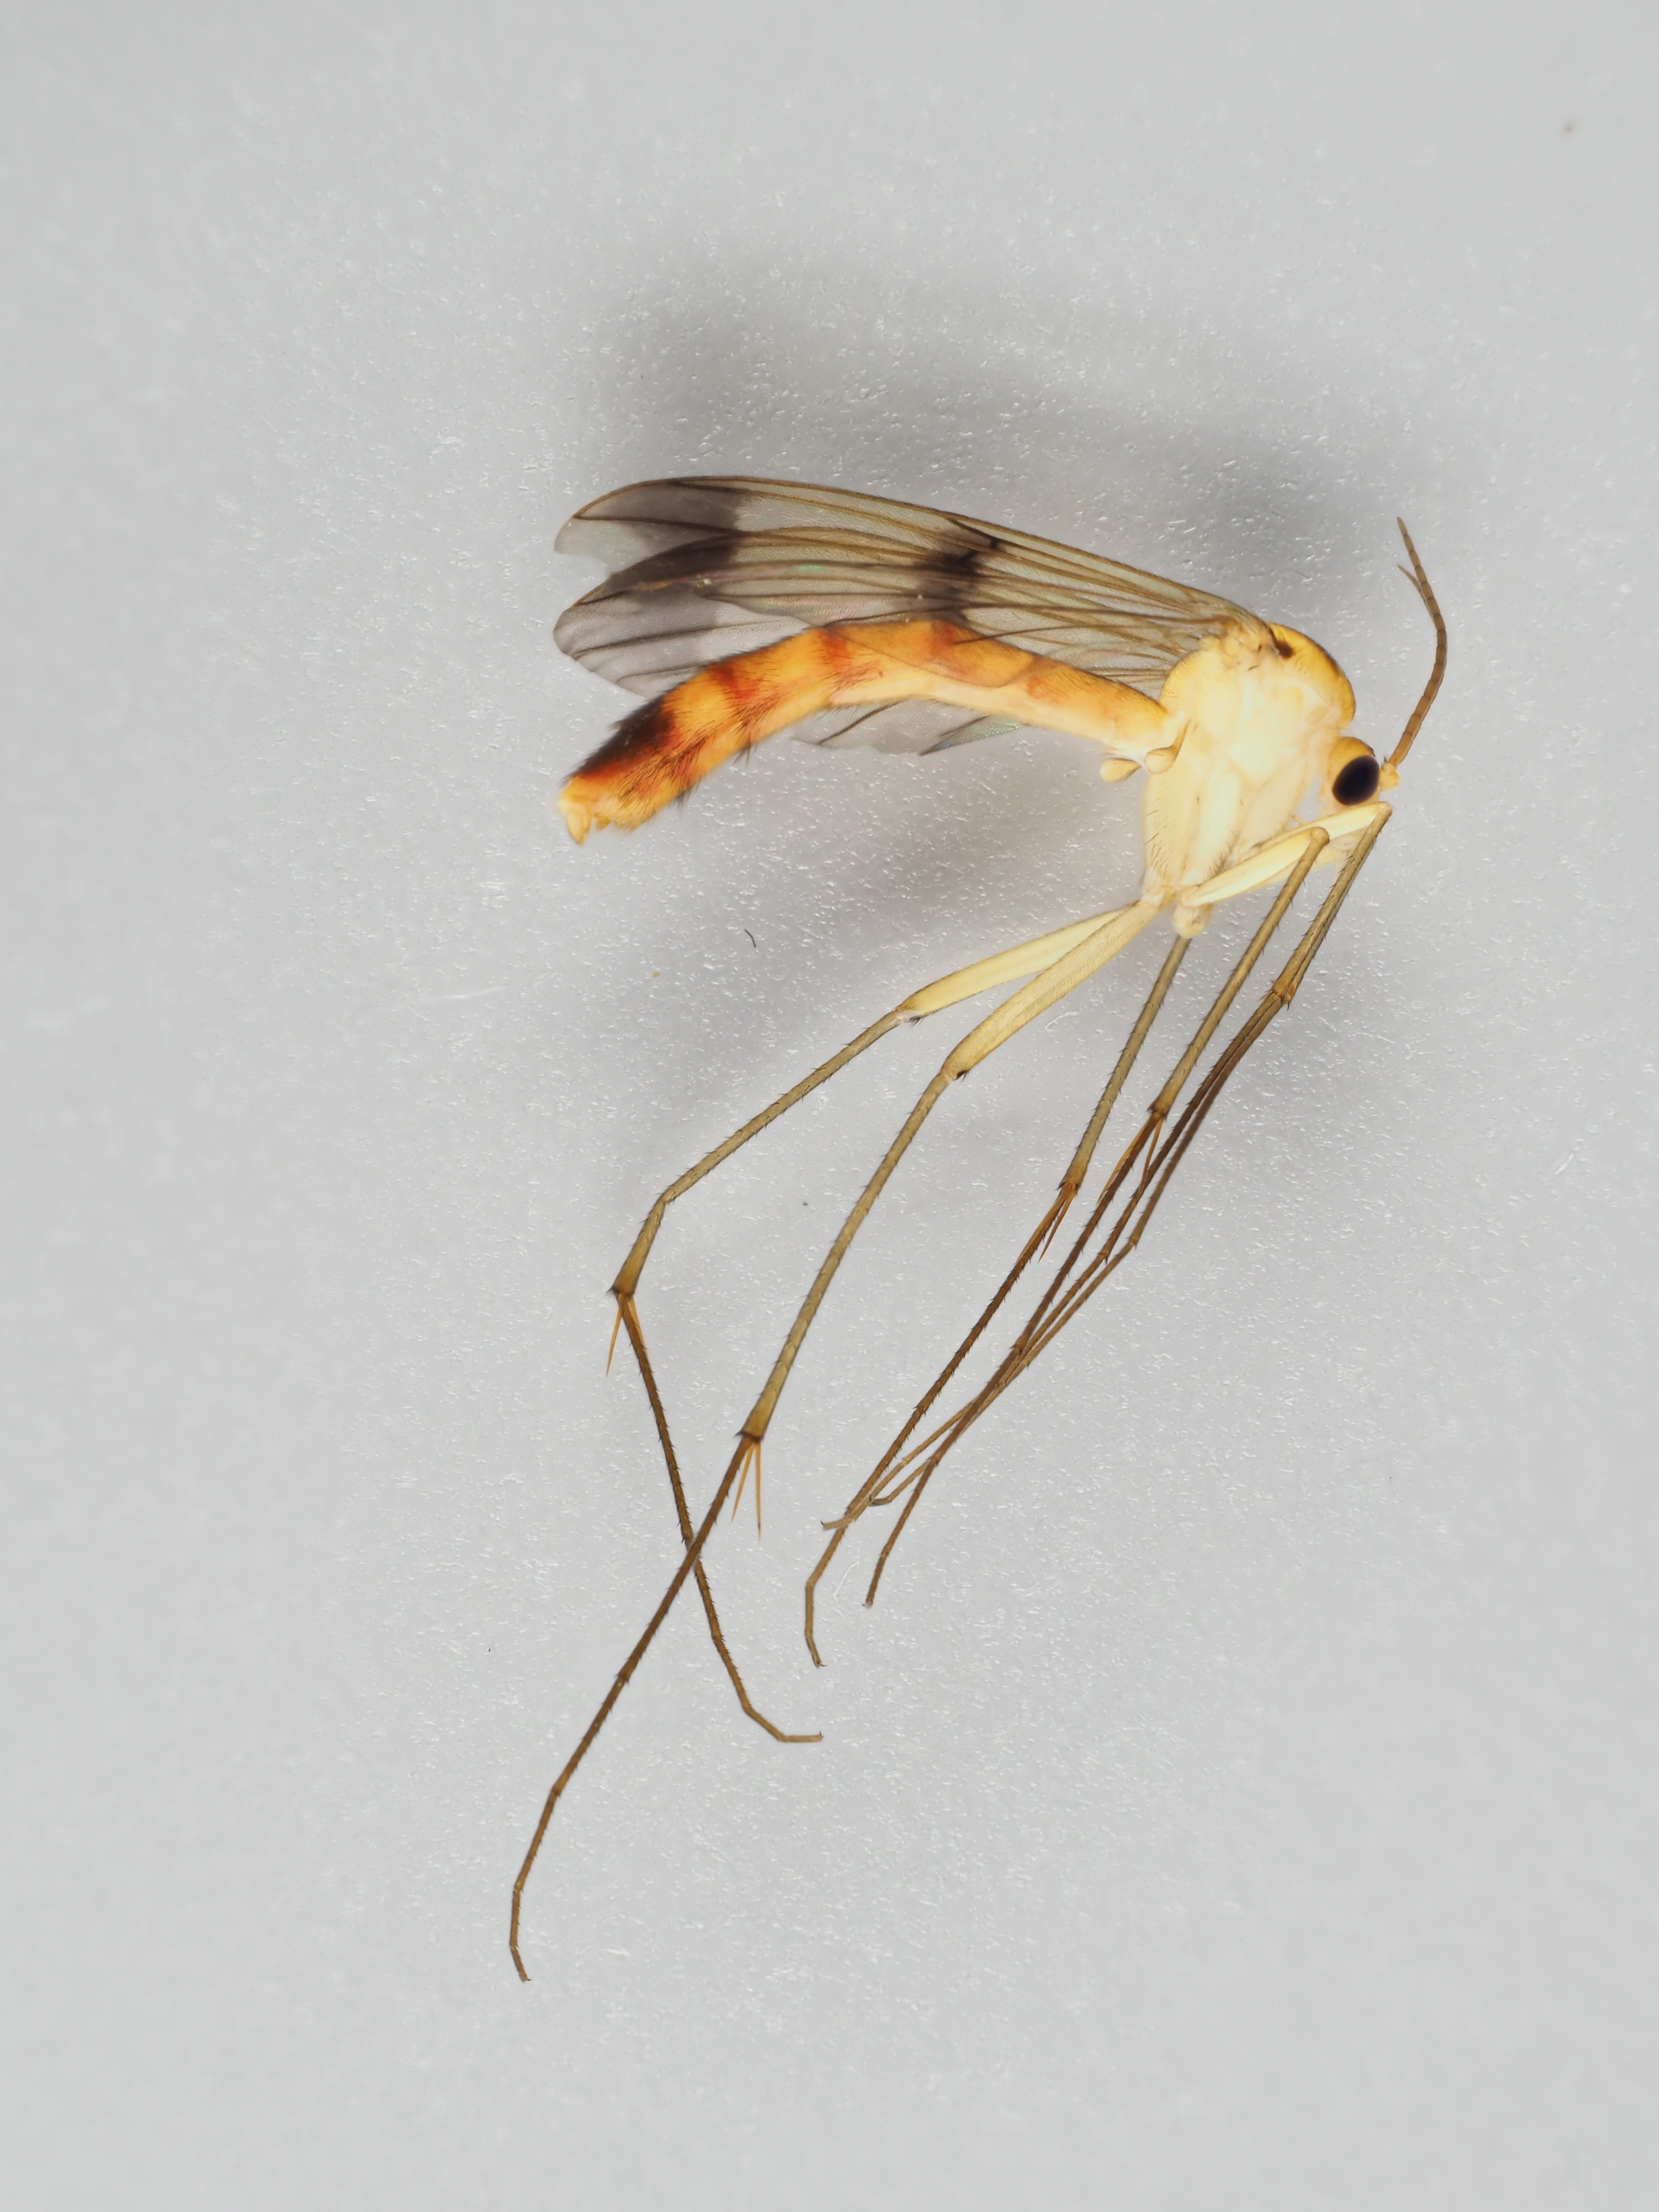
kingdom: Animalia
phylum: Arthropoda
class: Insecta
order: Diptera
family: Mycetophilidae
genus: Leptomorphus
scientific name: Leptomorphus walkeri
